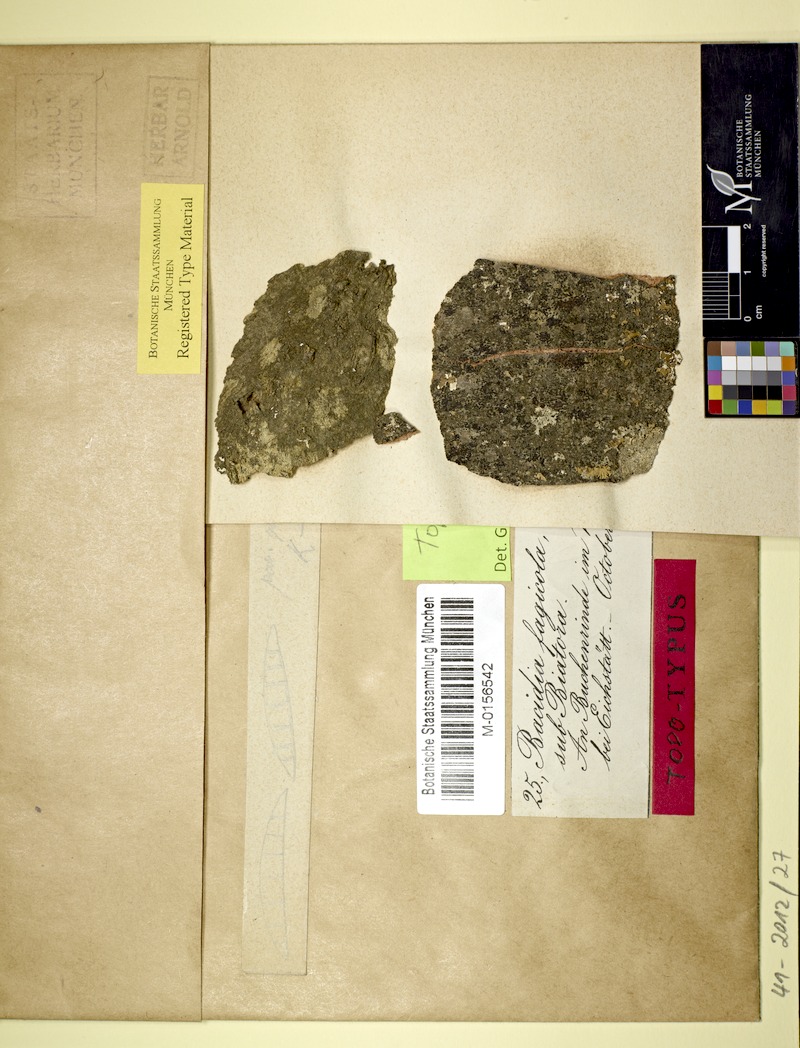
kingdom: Fungi
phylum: Ascomycota
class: Lecanoromycetes
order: Gyalectales
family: Gyalectaceae
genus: Pachyphiale
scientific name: Pachyphiale fagicola
